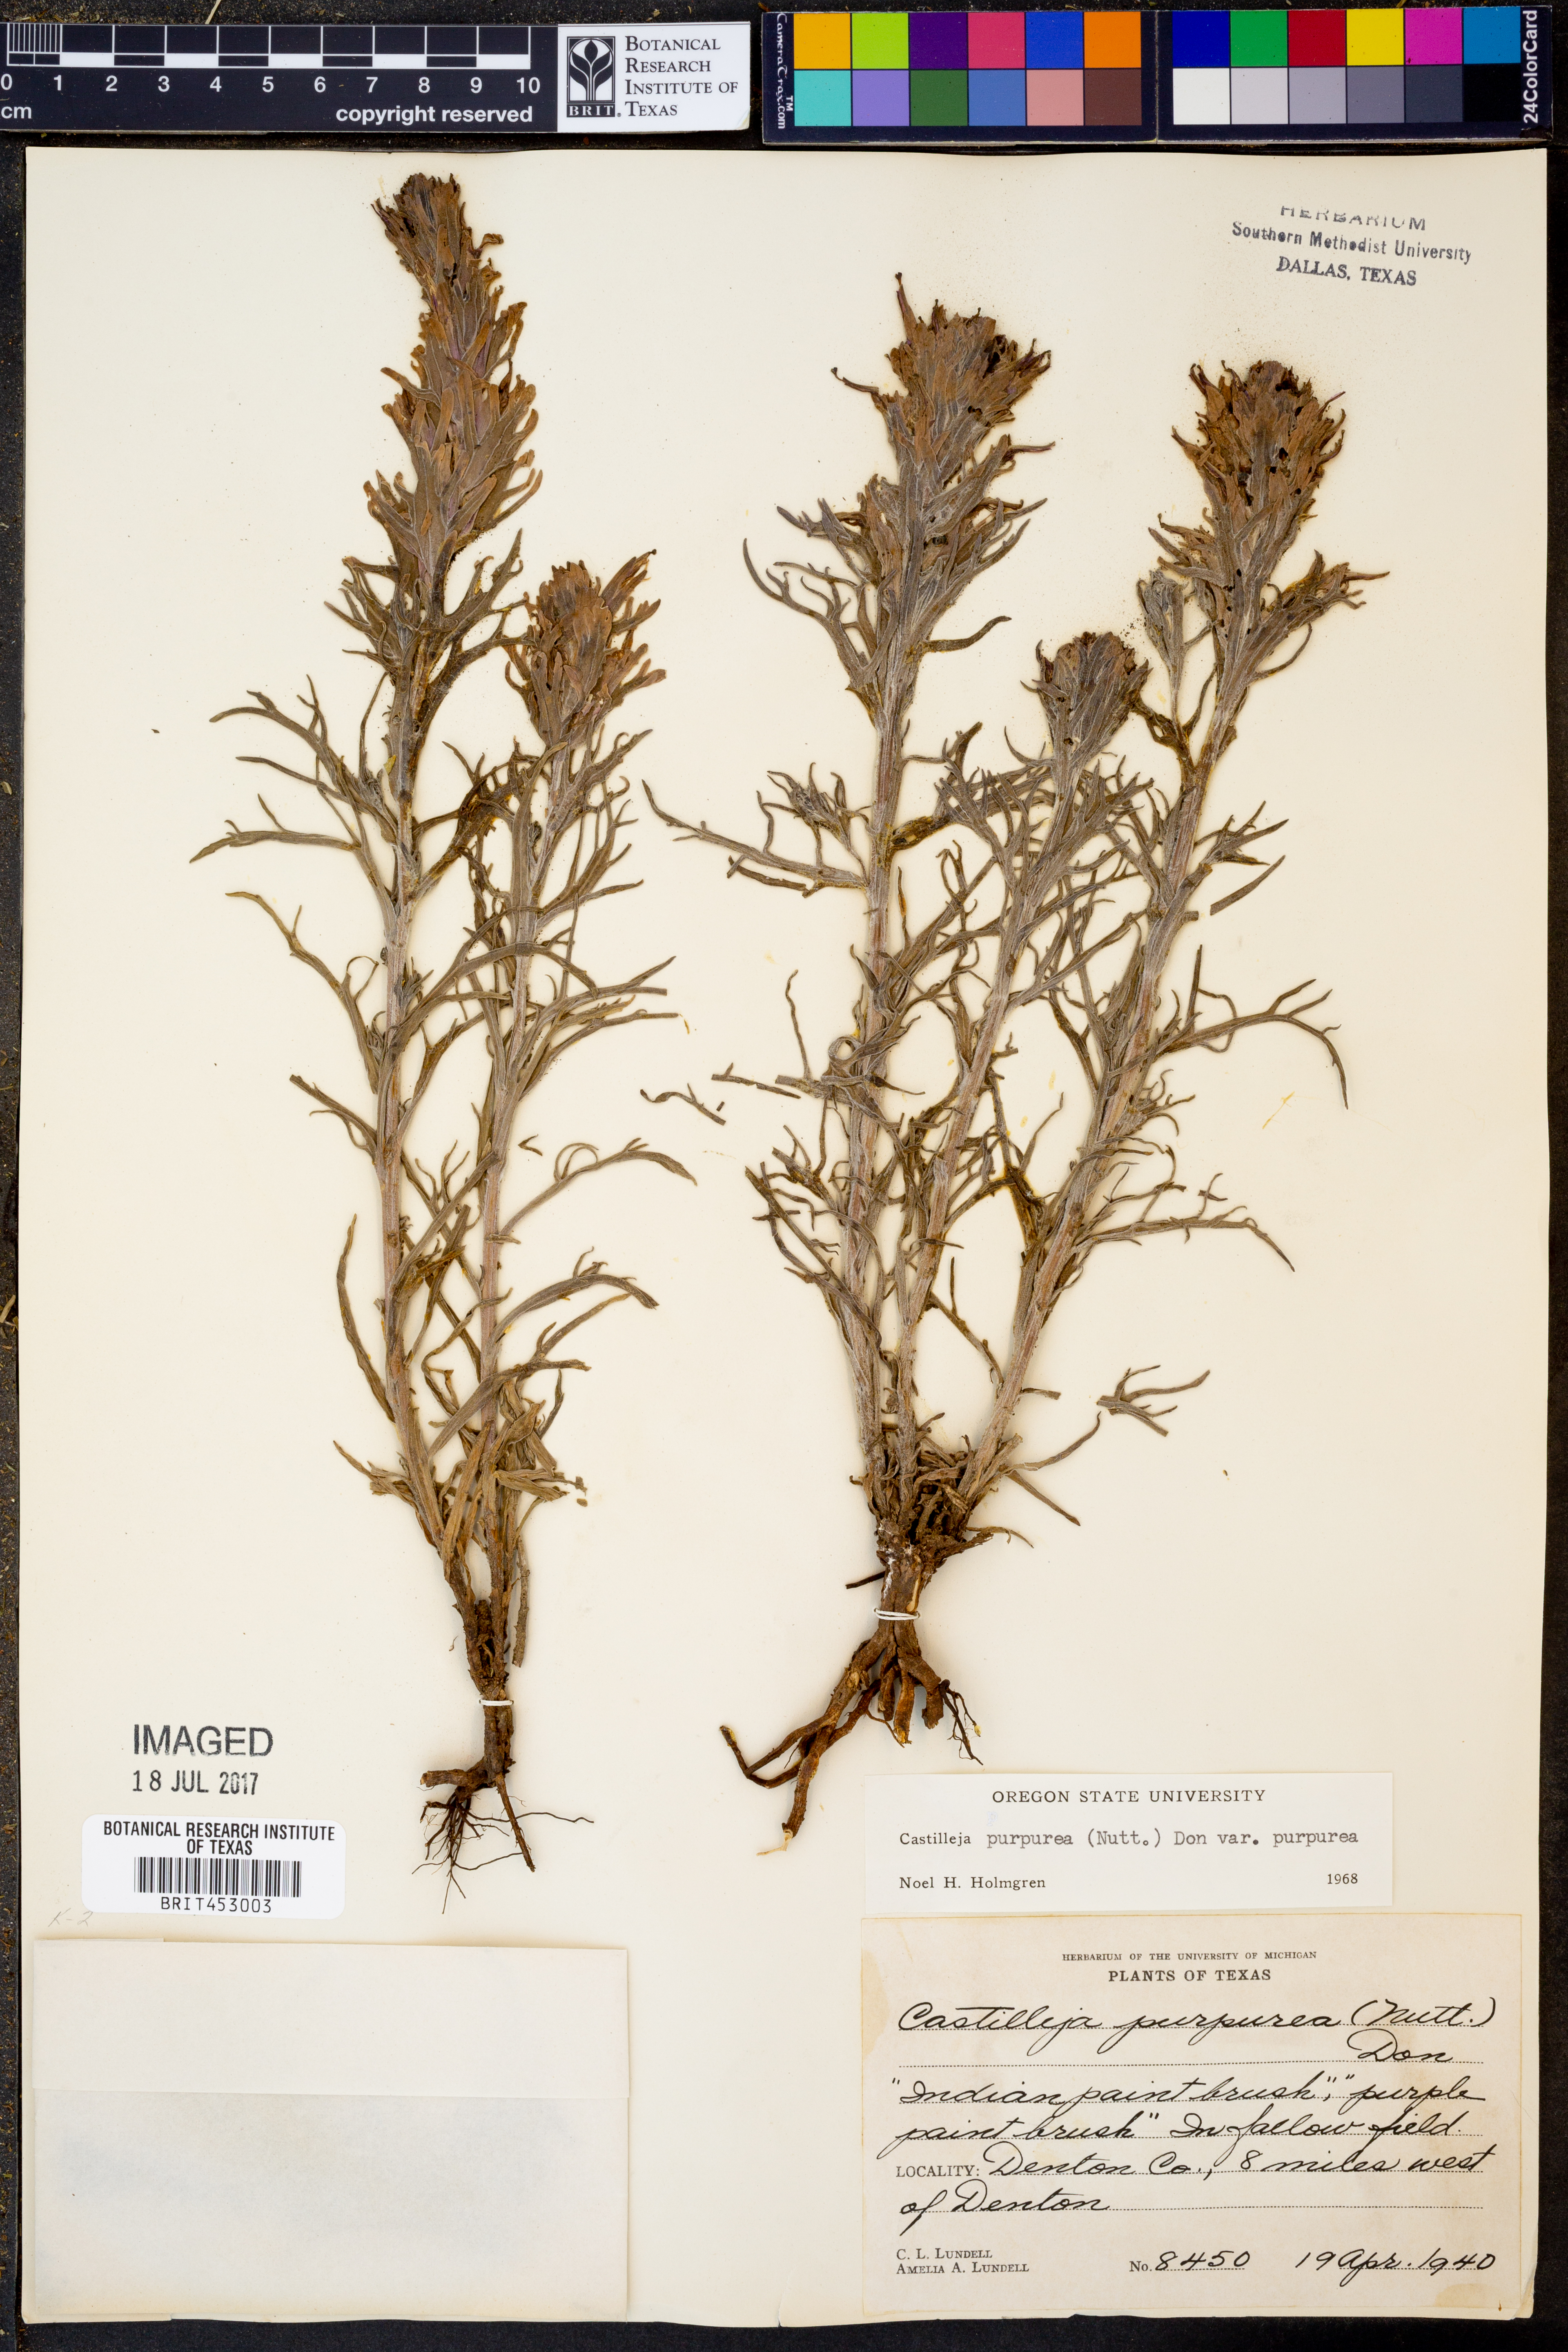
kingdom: Plantae
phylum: Tracheophyta
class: Magnoliopsida
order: Lamiales
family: Orobanchaceae
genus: Castilleja
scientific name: Castilleja purpurea
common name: Plains paintbrush
